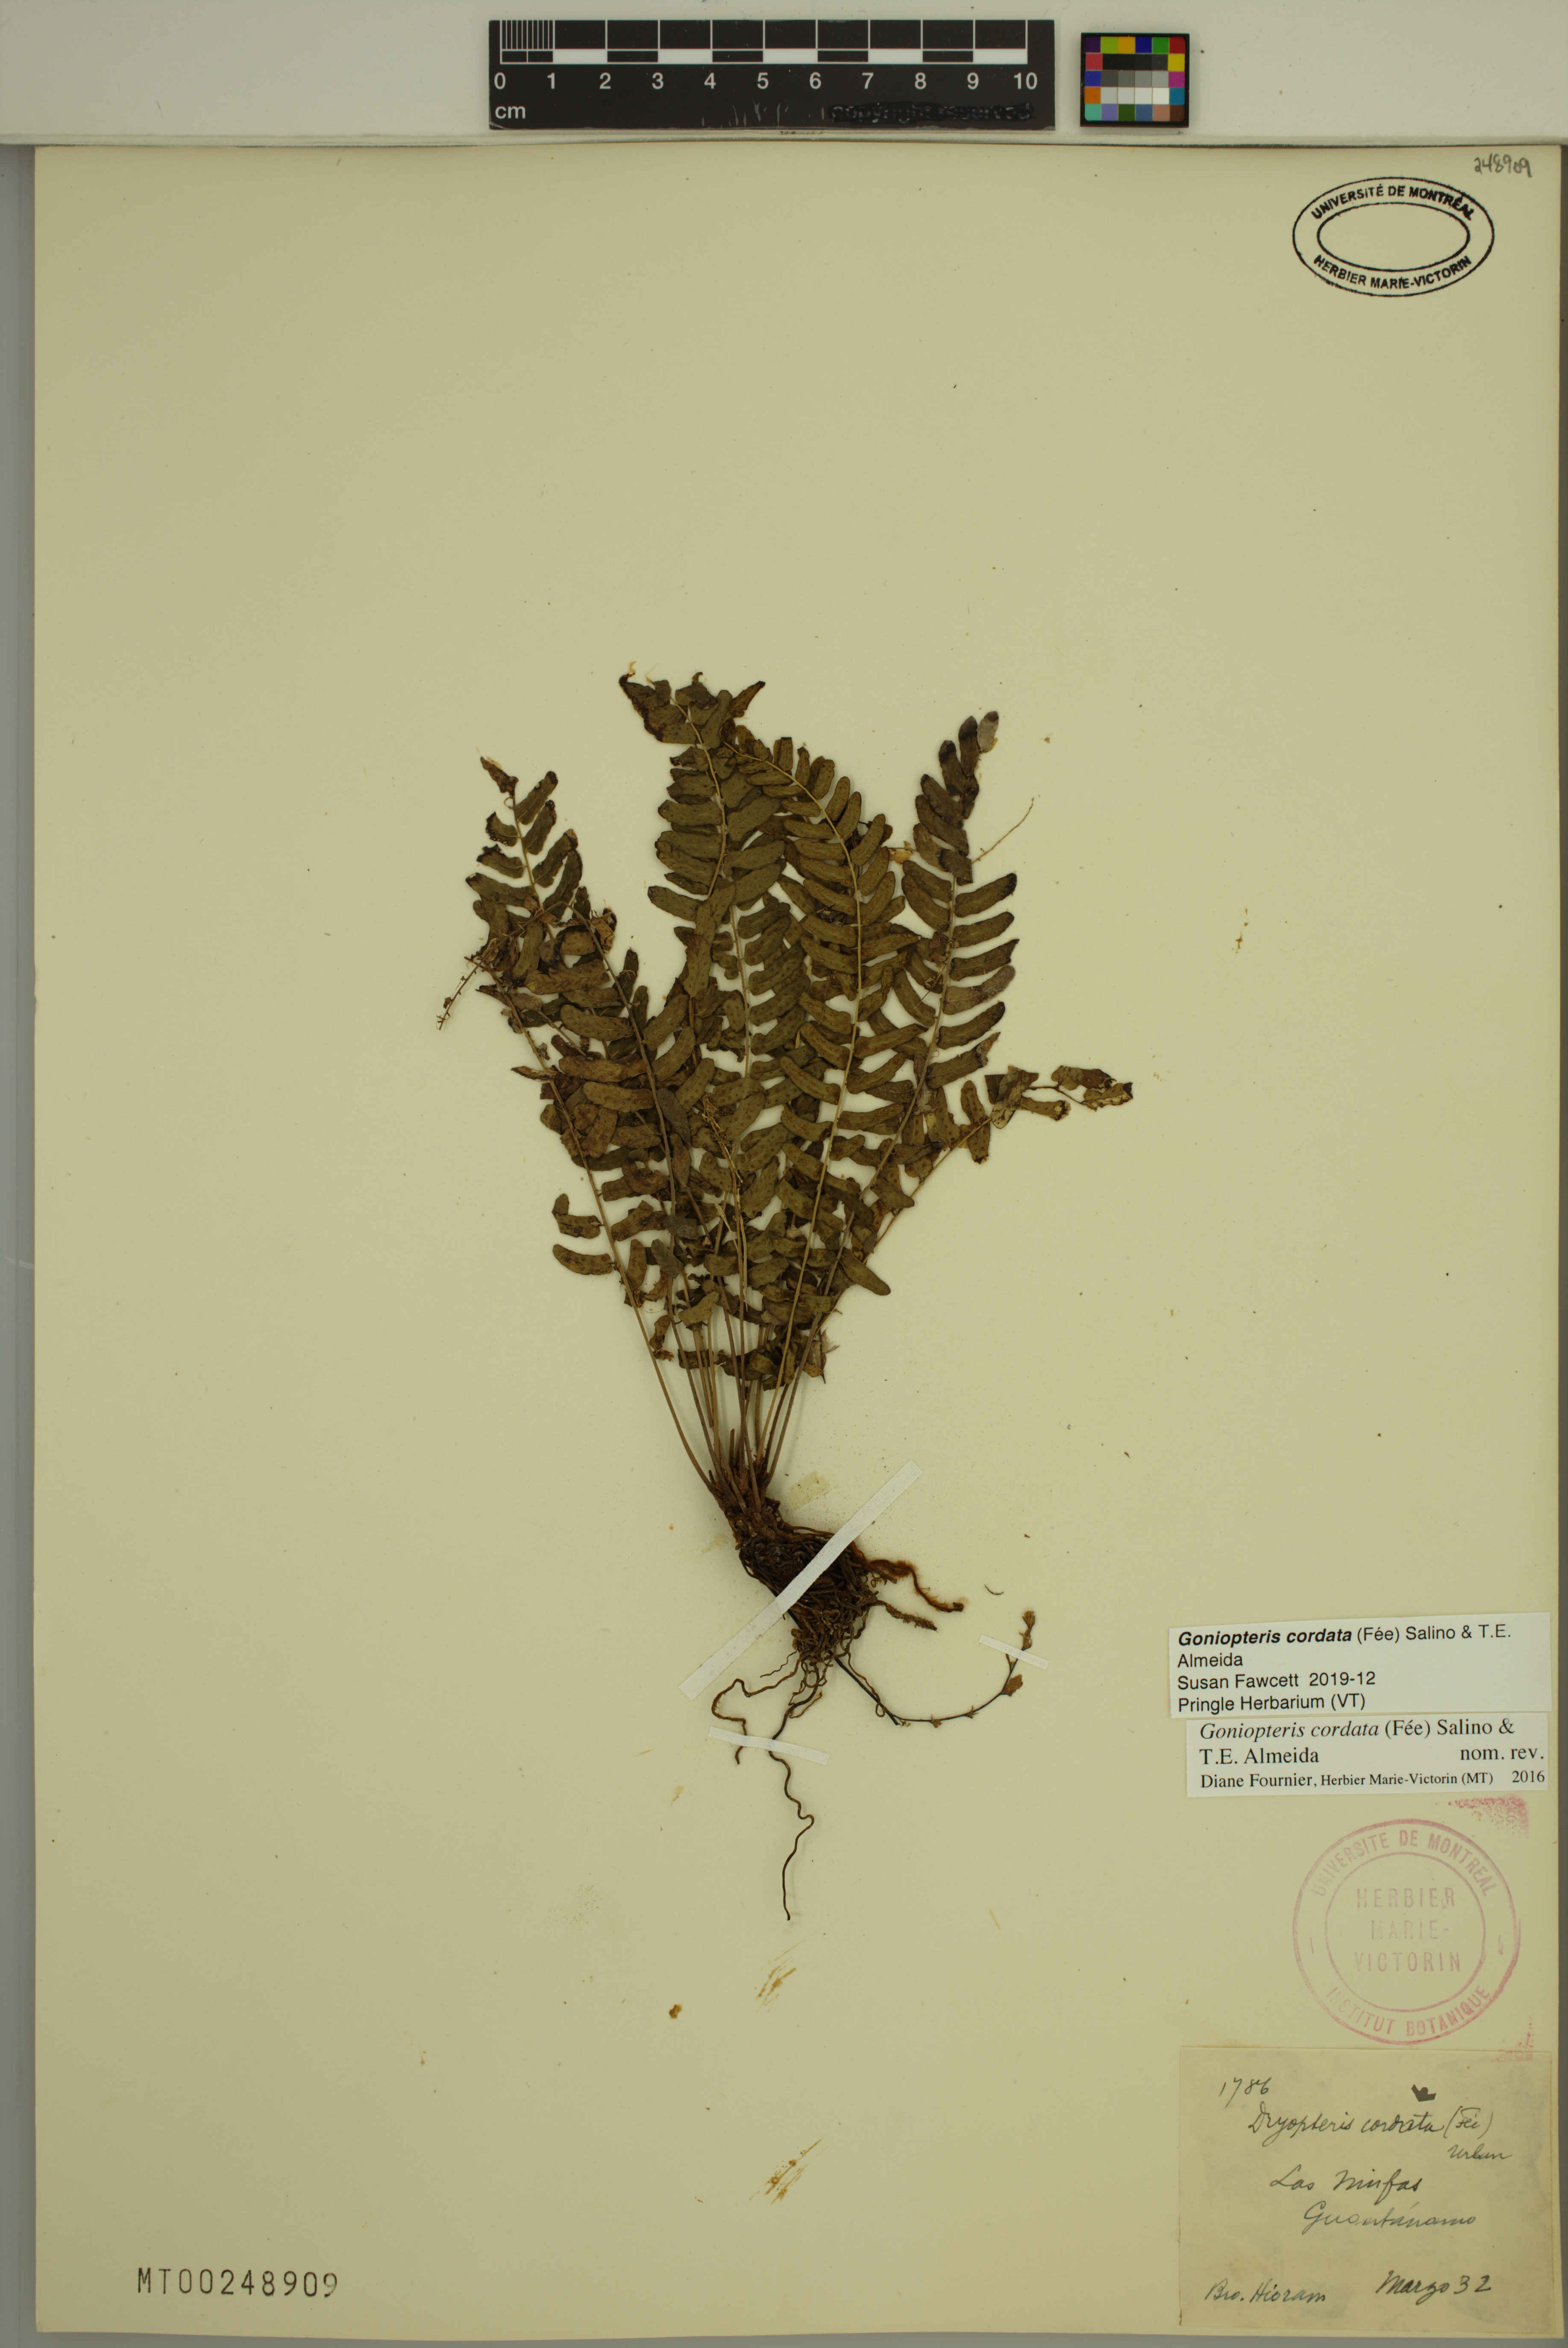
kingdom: Plantae
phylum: Tracheophyta
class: Polypodiopsida
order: Polypodiales
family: Thelypteridaceae
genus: Goniopteris
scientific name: Goniopteris cordata
